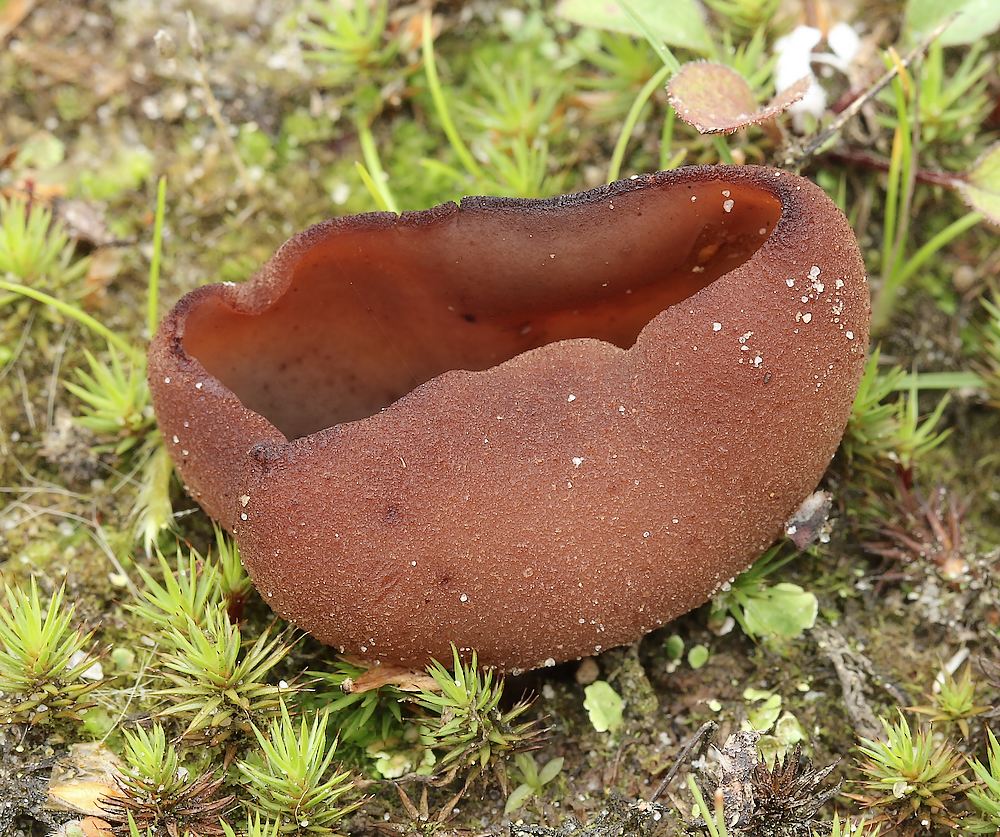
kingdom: Fungi
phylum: Ascomycota
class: Pezizomycetes
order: Pezizales
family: Pezizaceae
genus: Legaliana
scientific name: Legaliana badia
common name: leverbrun bægersvamp
